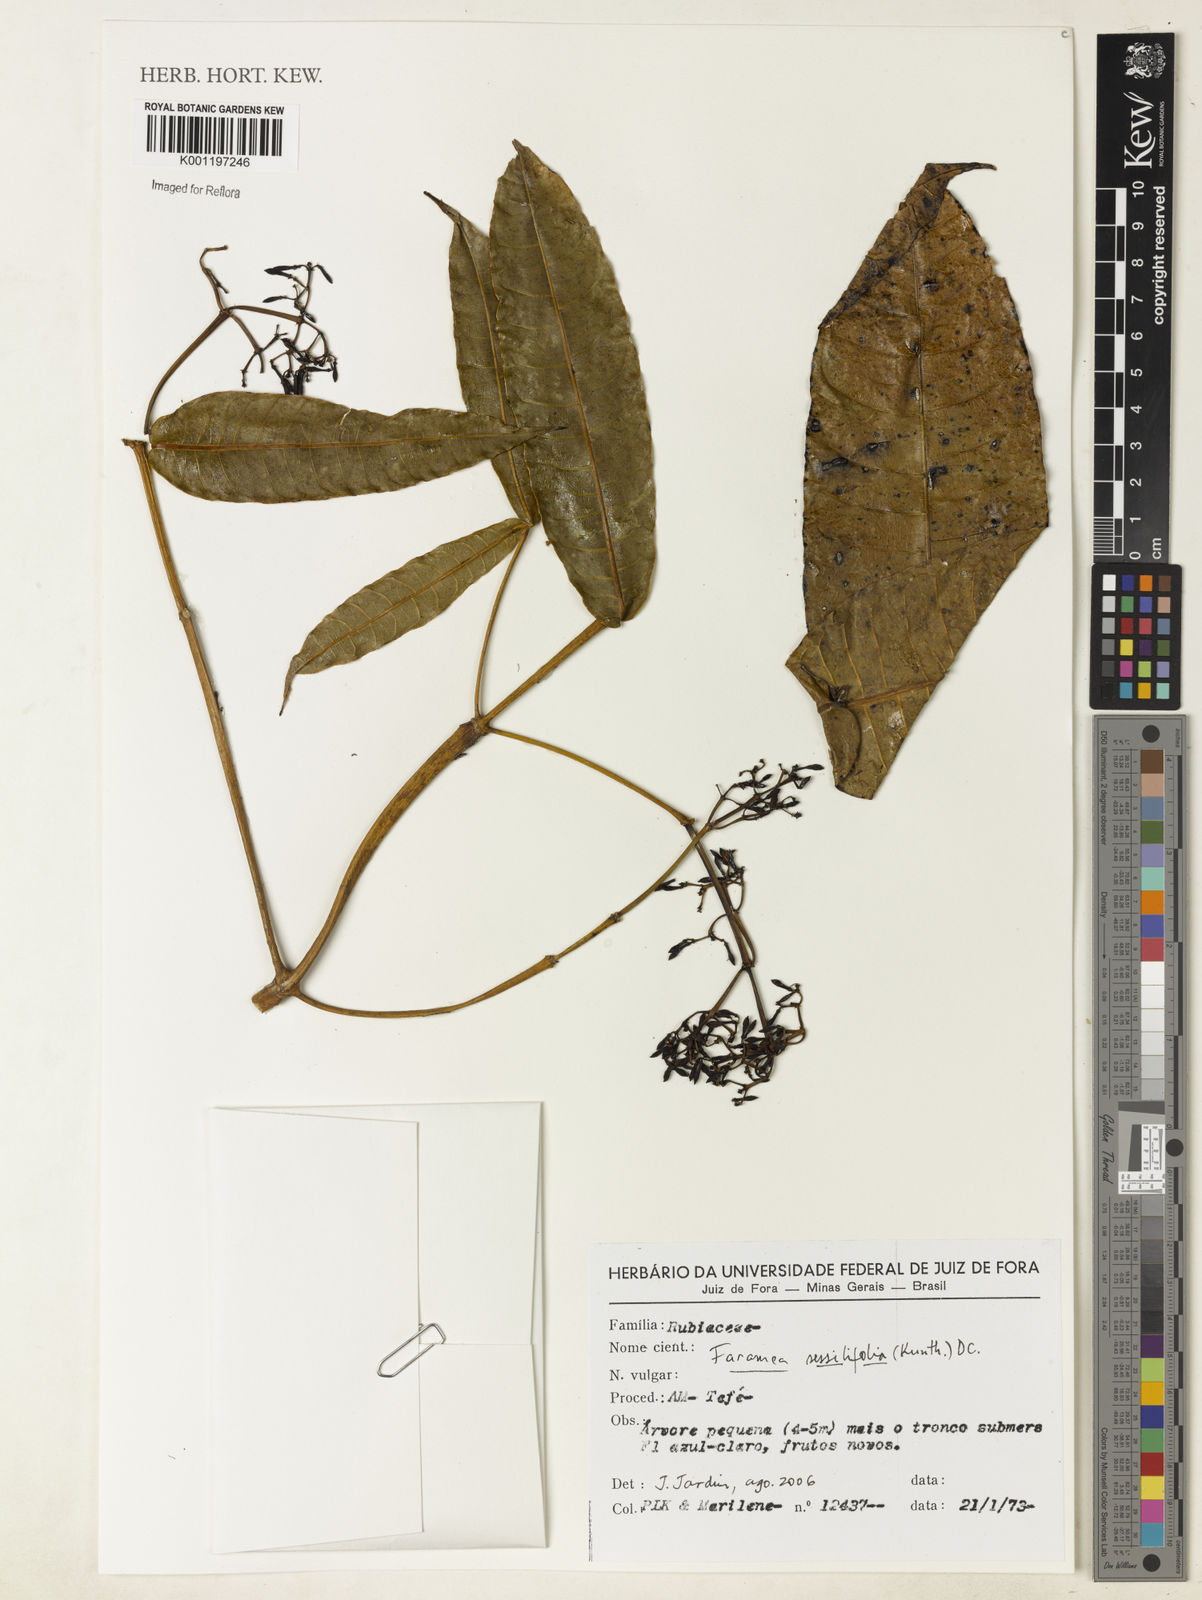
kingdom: Plantae
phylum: Tracheophyta
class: Magnoliopsida
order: Gentianales
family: Rubiaceae
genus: Faramea
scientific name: Faramea sessilifolia
